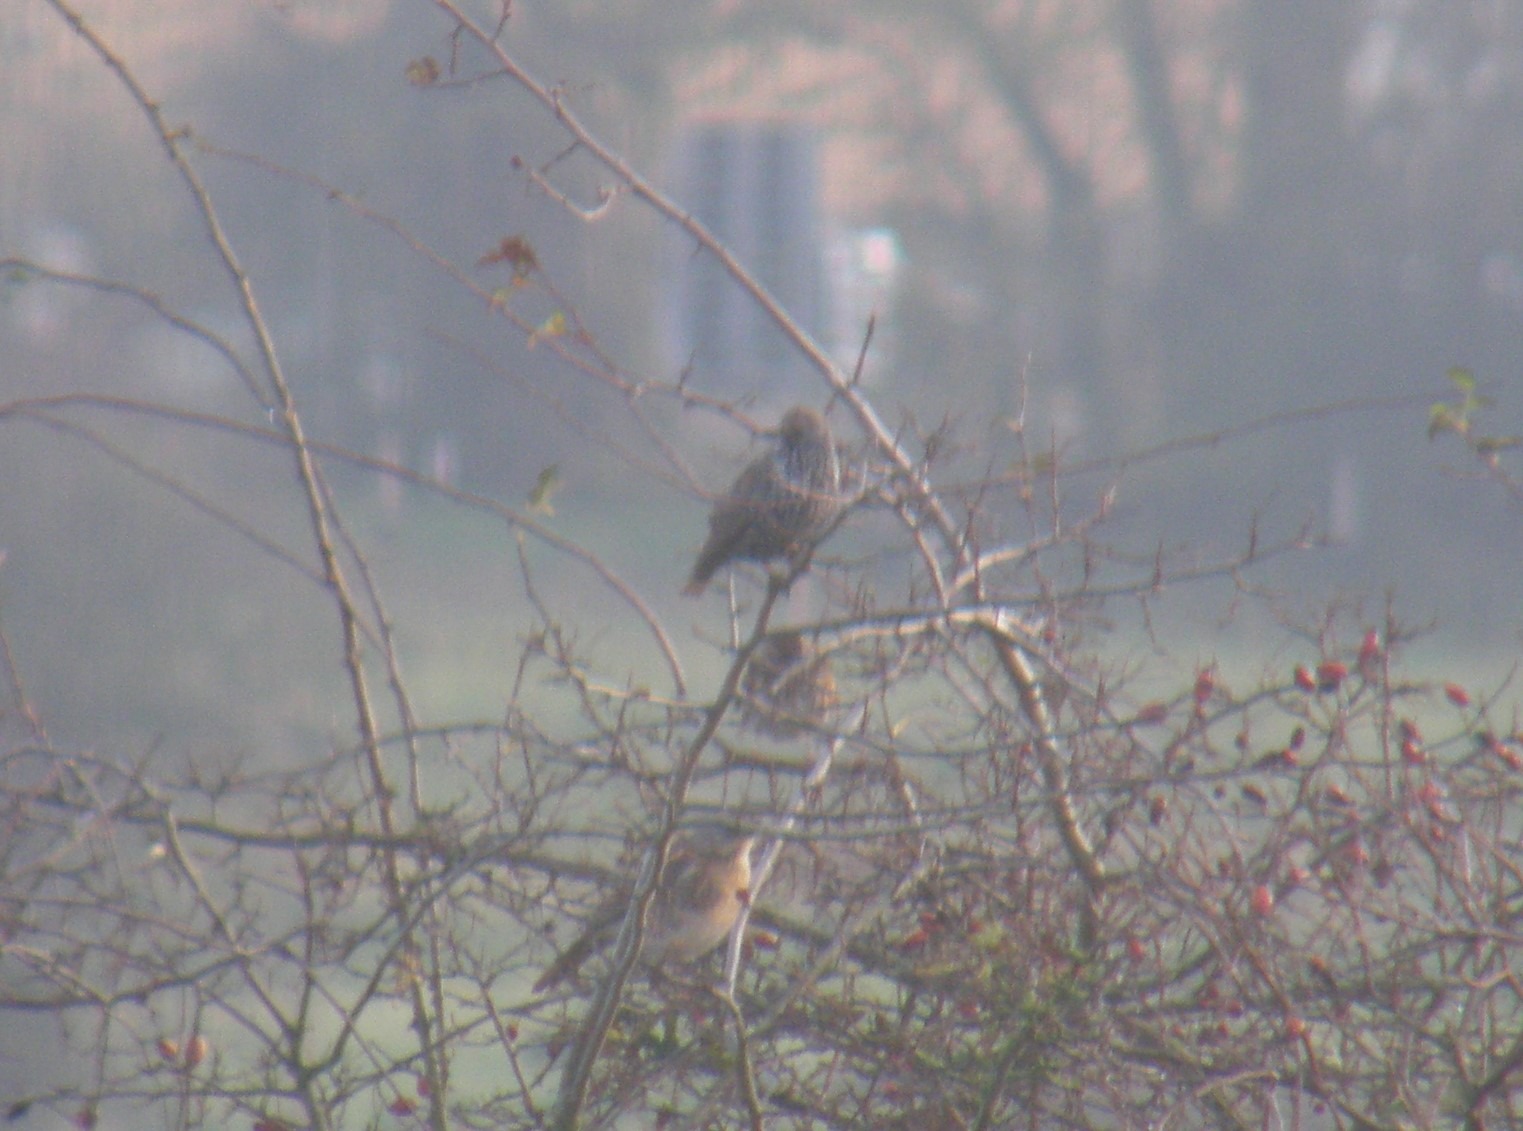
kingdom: Animalia
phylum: Chordata
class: Aves
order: Passeriformes
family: Sturnidae
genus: Sturnus
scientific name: Sturnus vulgaris
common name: Stær
